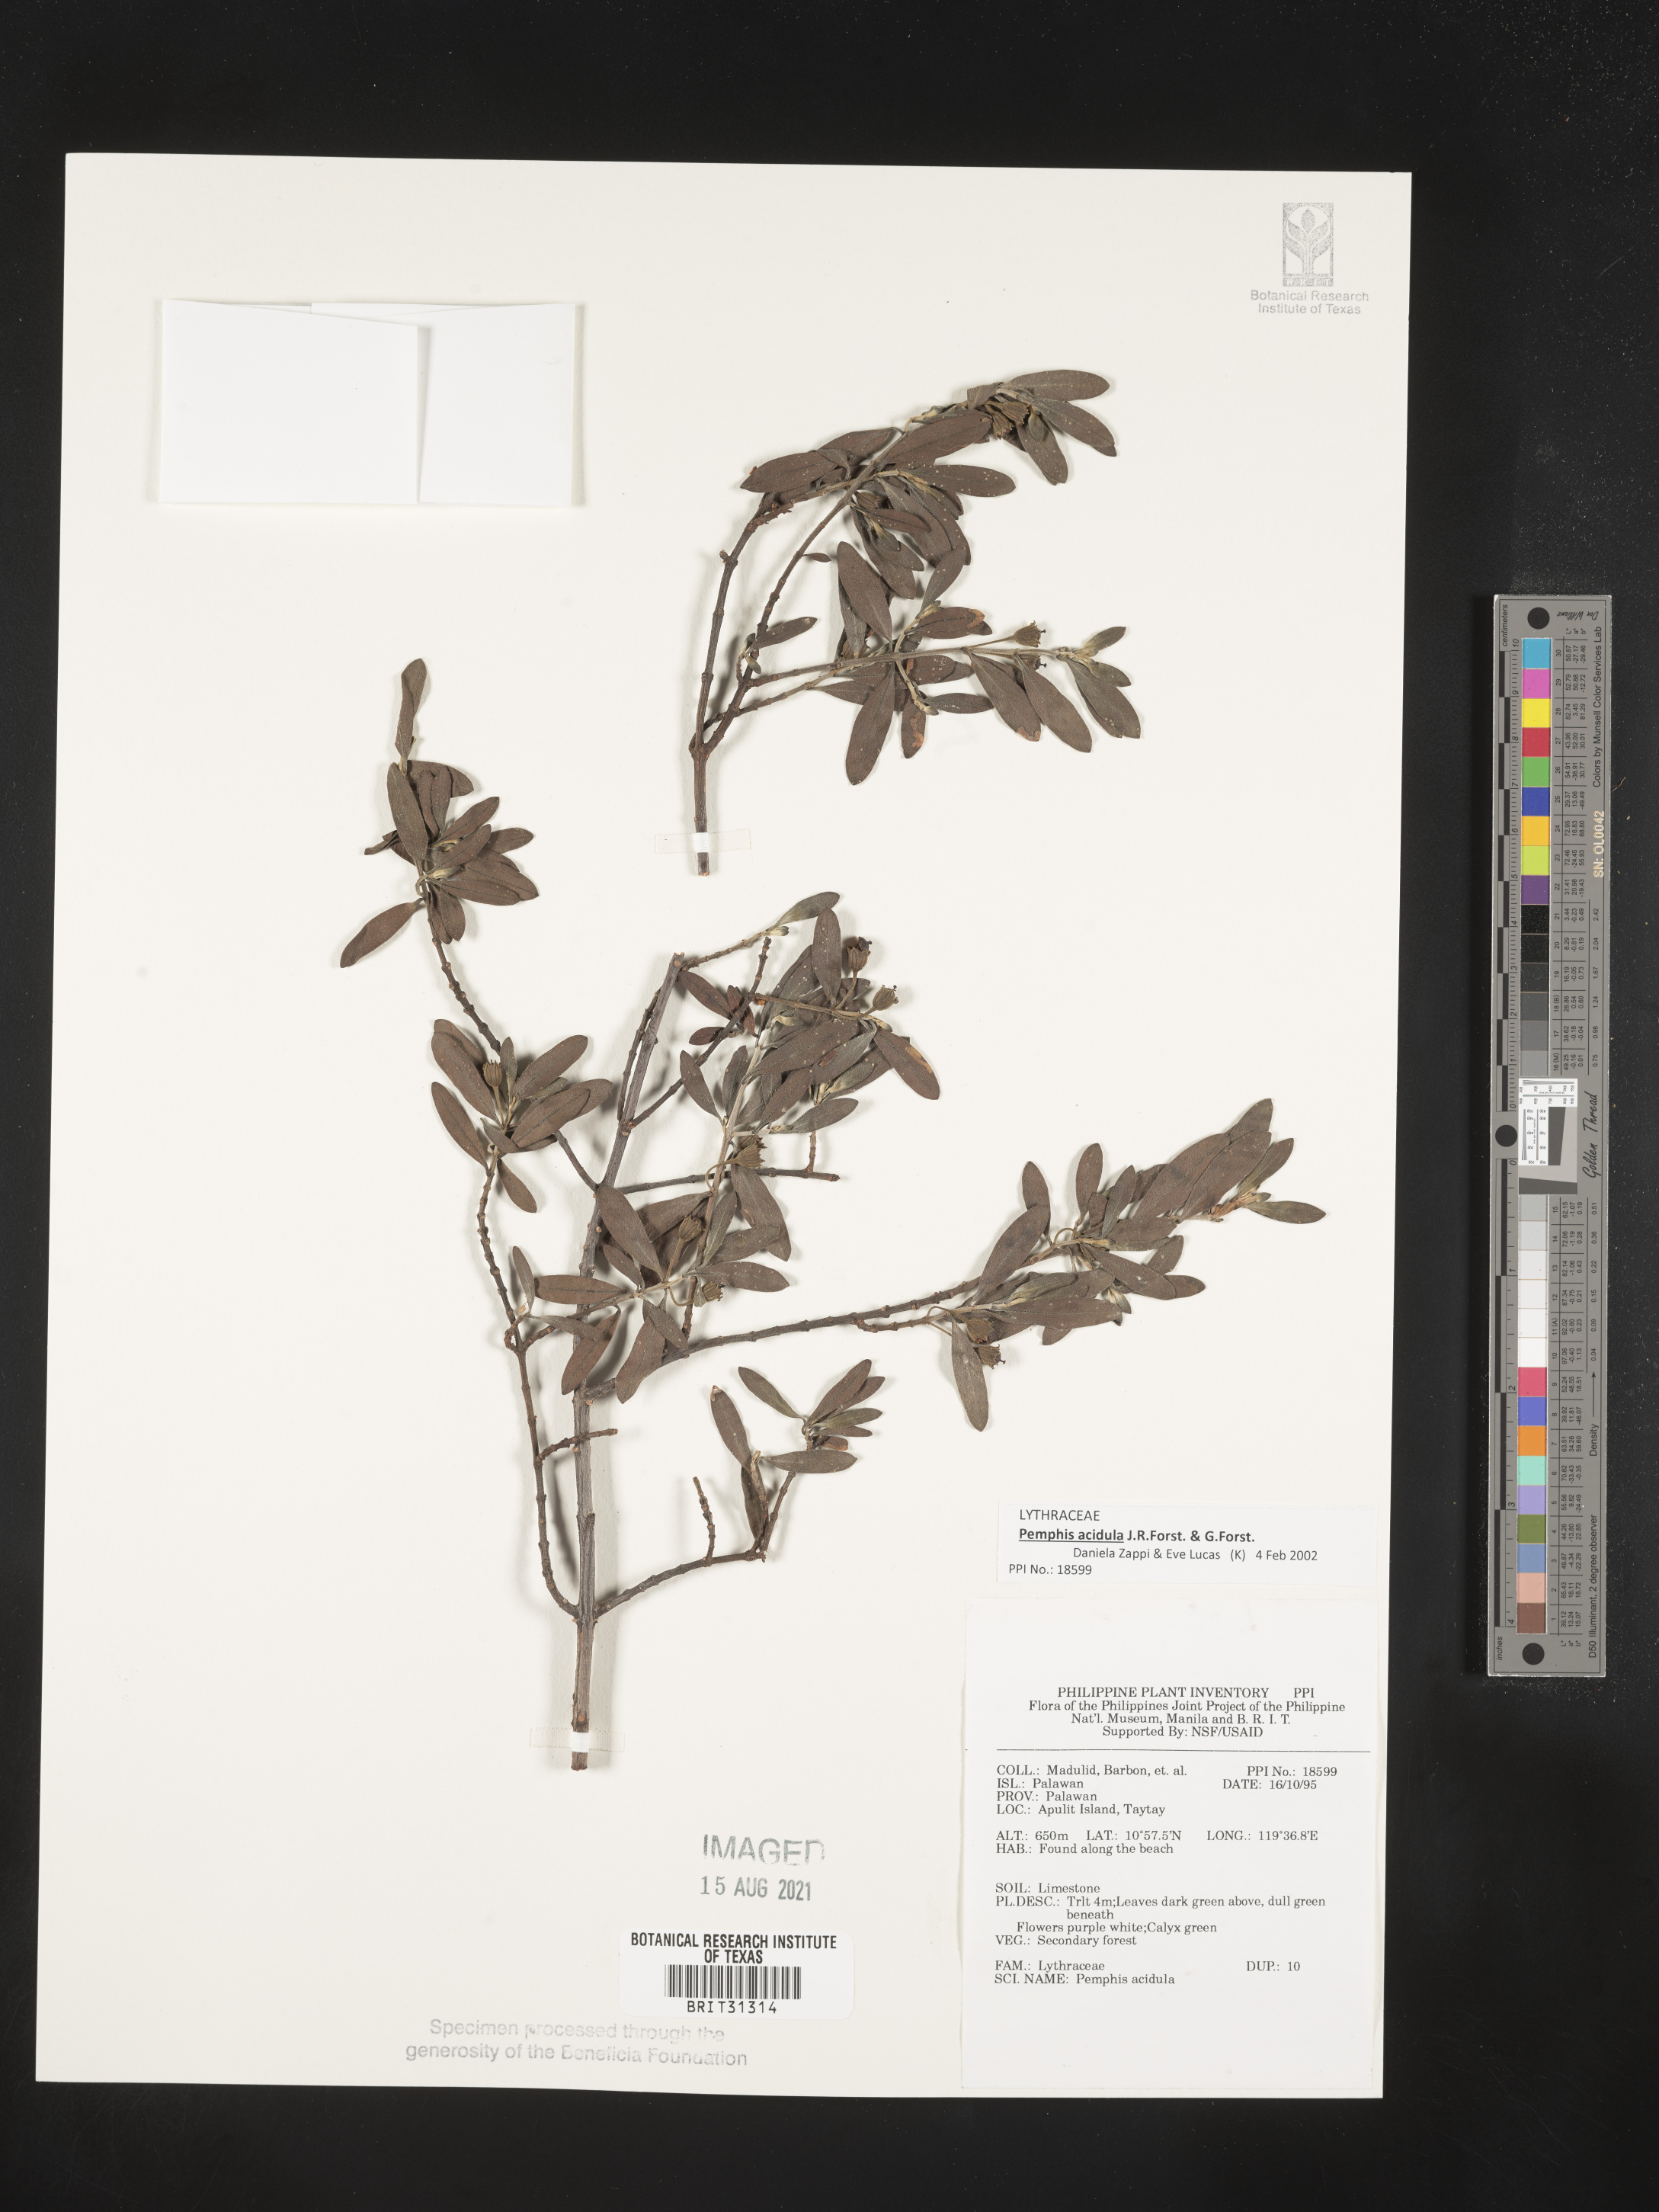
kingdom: Plantae
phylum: Tracheophyta
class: Magnoliopsida
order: Myrtales
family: Lythraceae
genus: Pemphis
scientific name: Pemphis acidula
